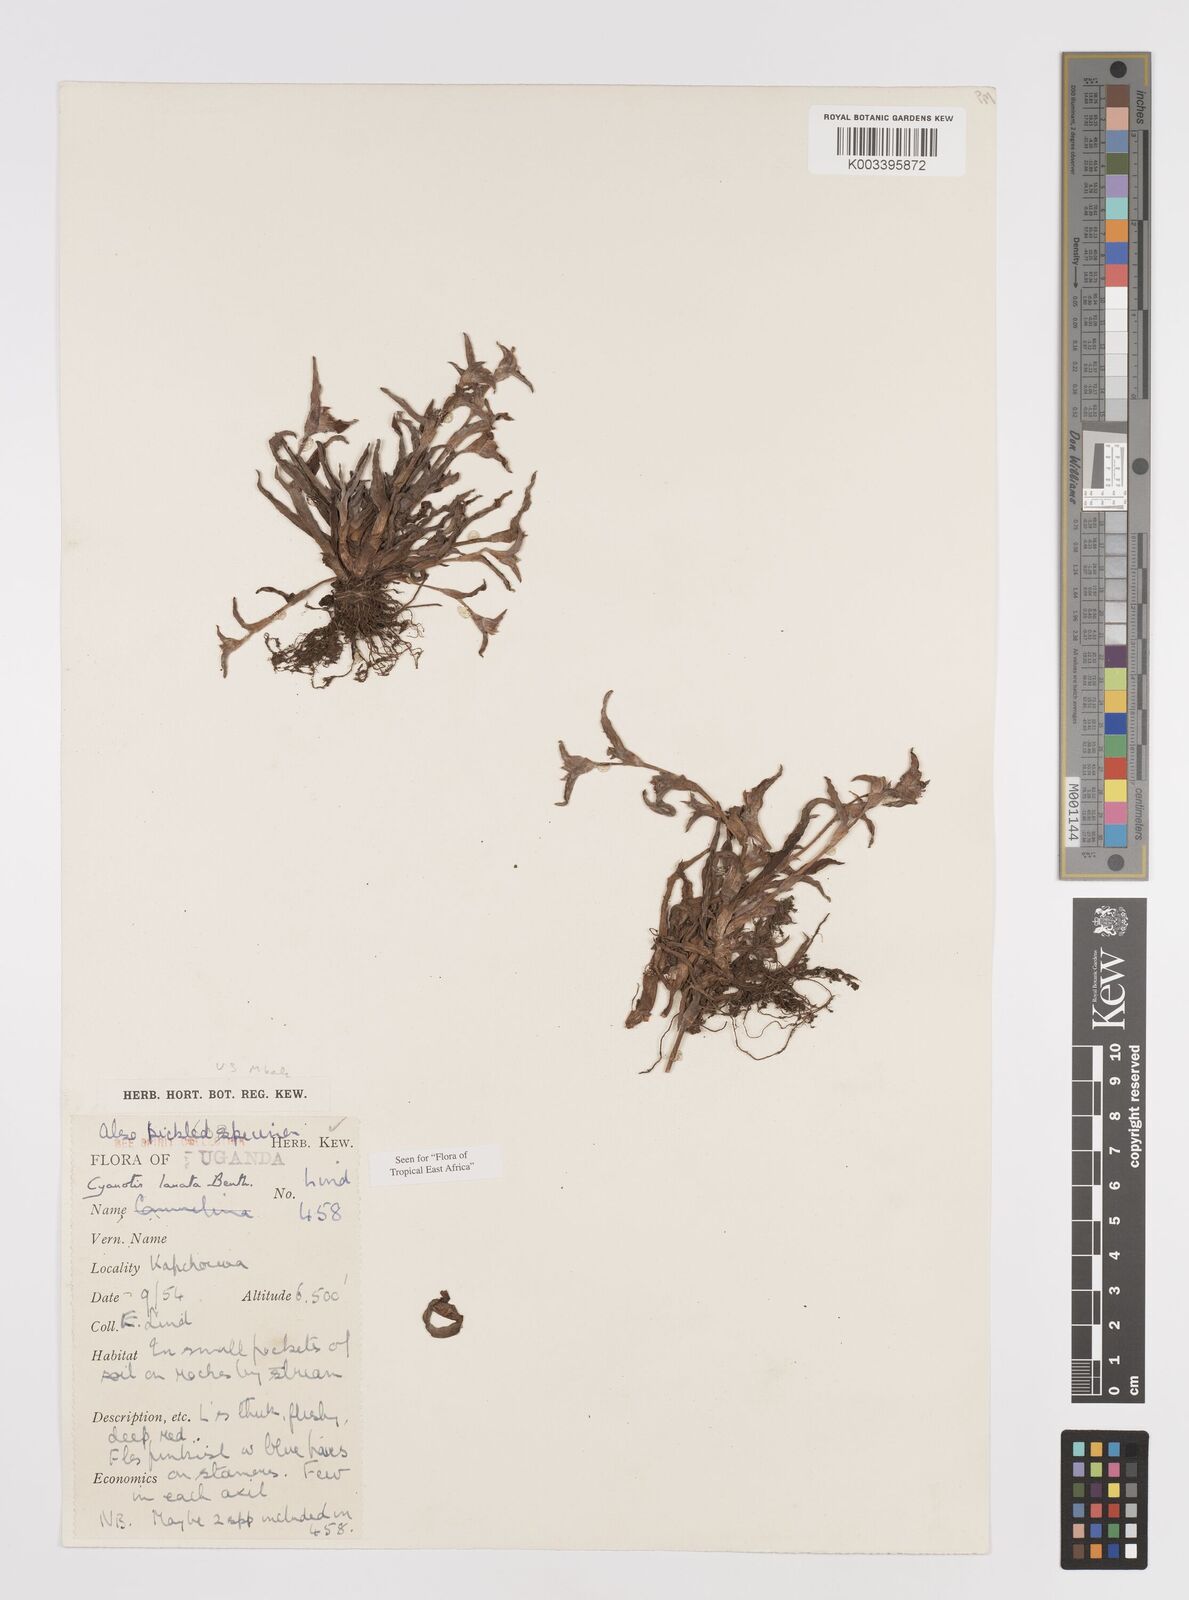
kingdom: Plantae
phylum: Tracheophyta
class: Liliopsida
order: Commelinales
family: Commelinaceae
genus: Cyanotis
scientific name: Cyanotis lanata
